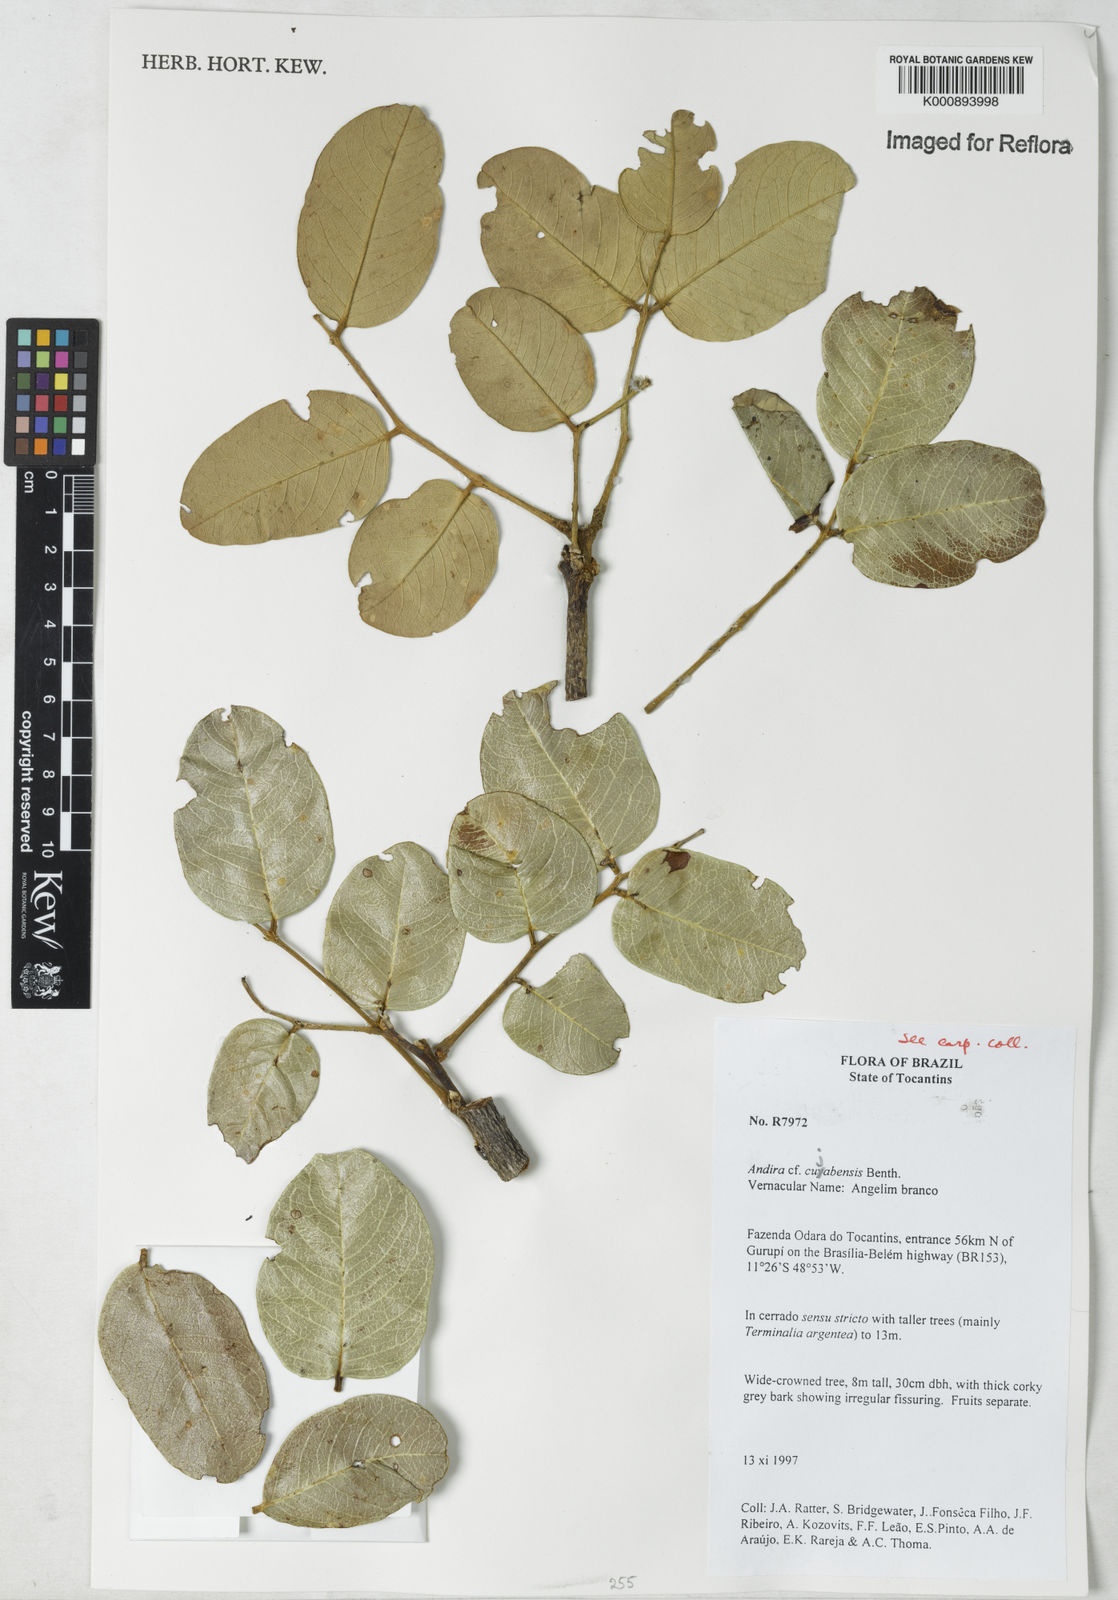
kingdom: Plantae
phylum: Tracheophyta
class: Magnoliopsida
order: Fabales
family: Fabaceae
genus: Andira
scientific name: Andira cujabensis
